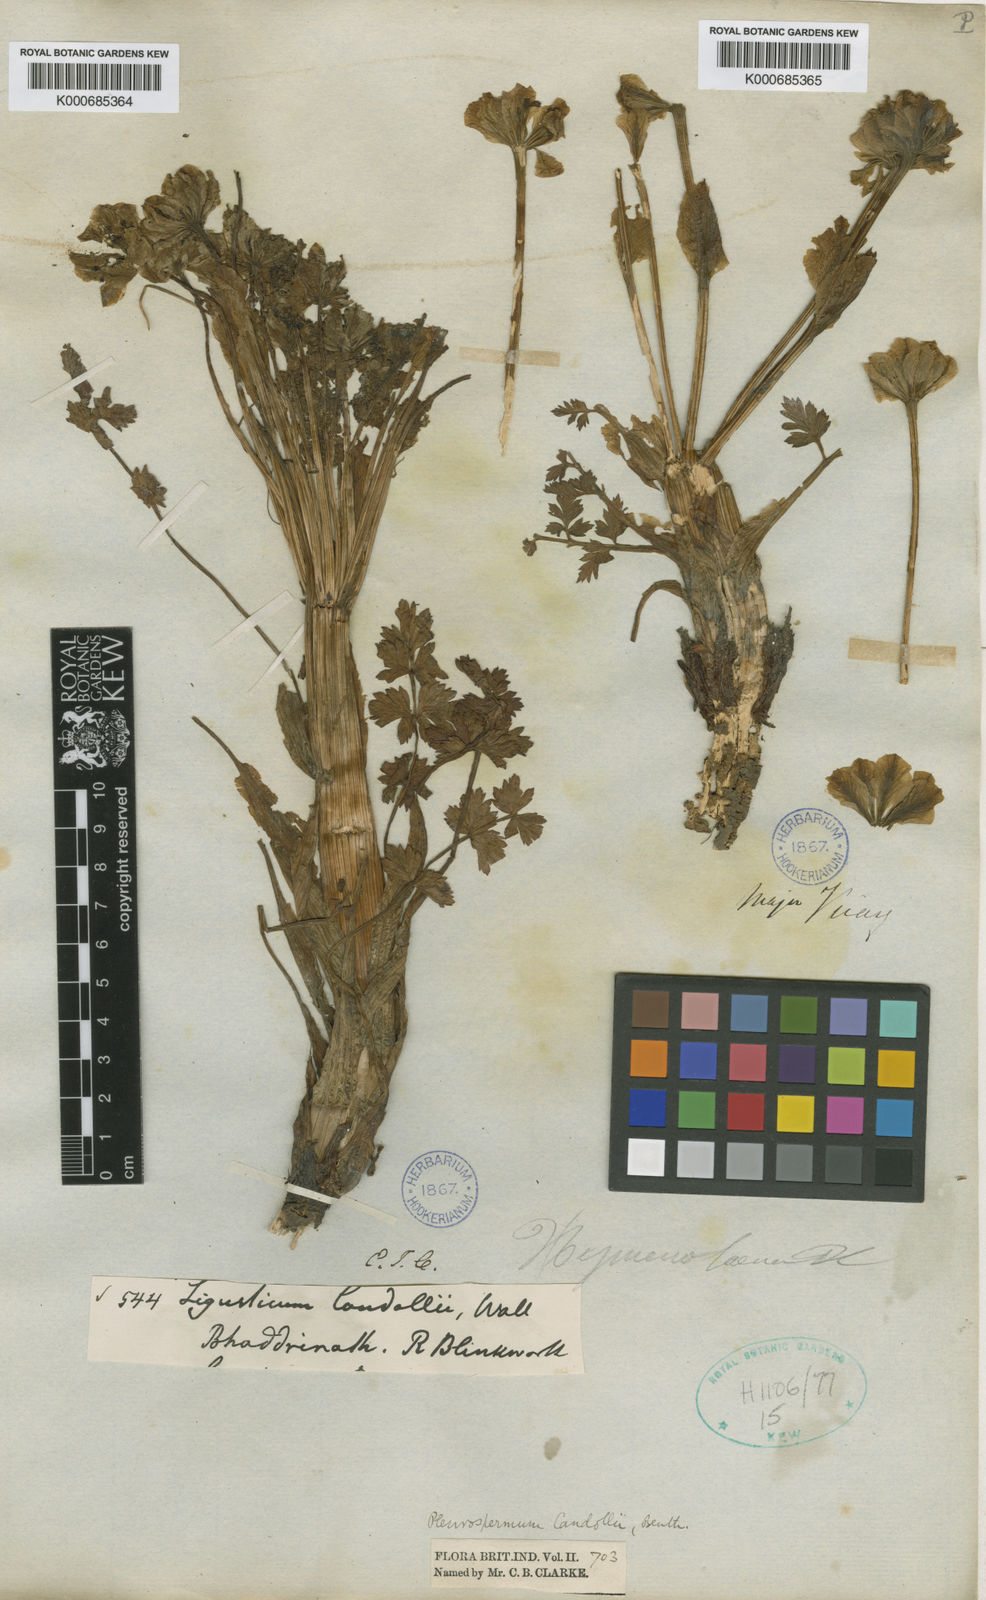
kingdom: Plantae
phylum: Tracheophyta
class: Magnoliopsida
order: Apiales
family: Apiaceae
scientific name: Apiaceae
